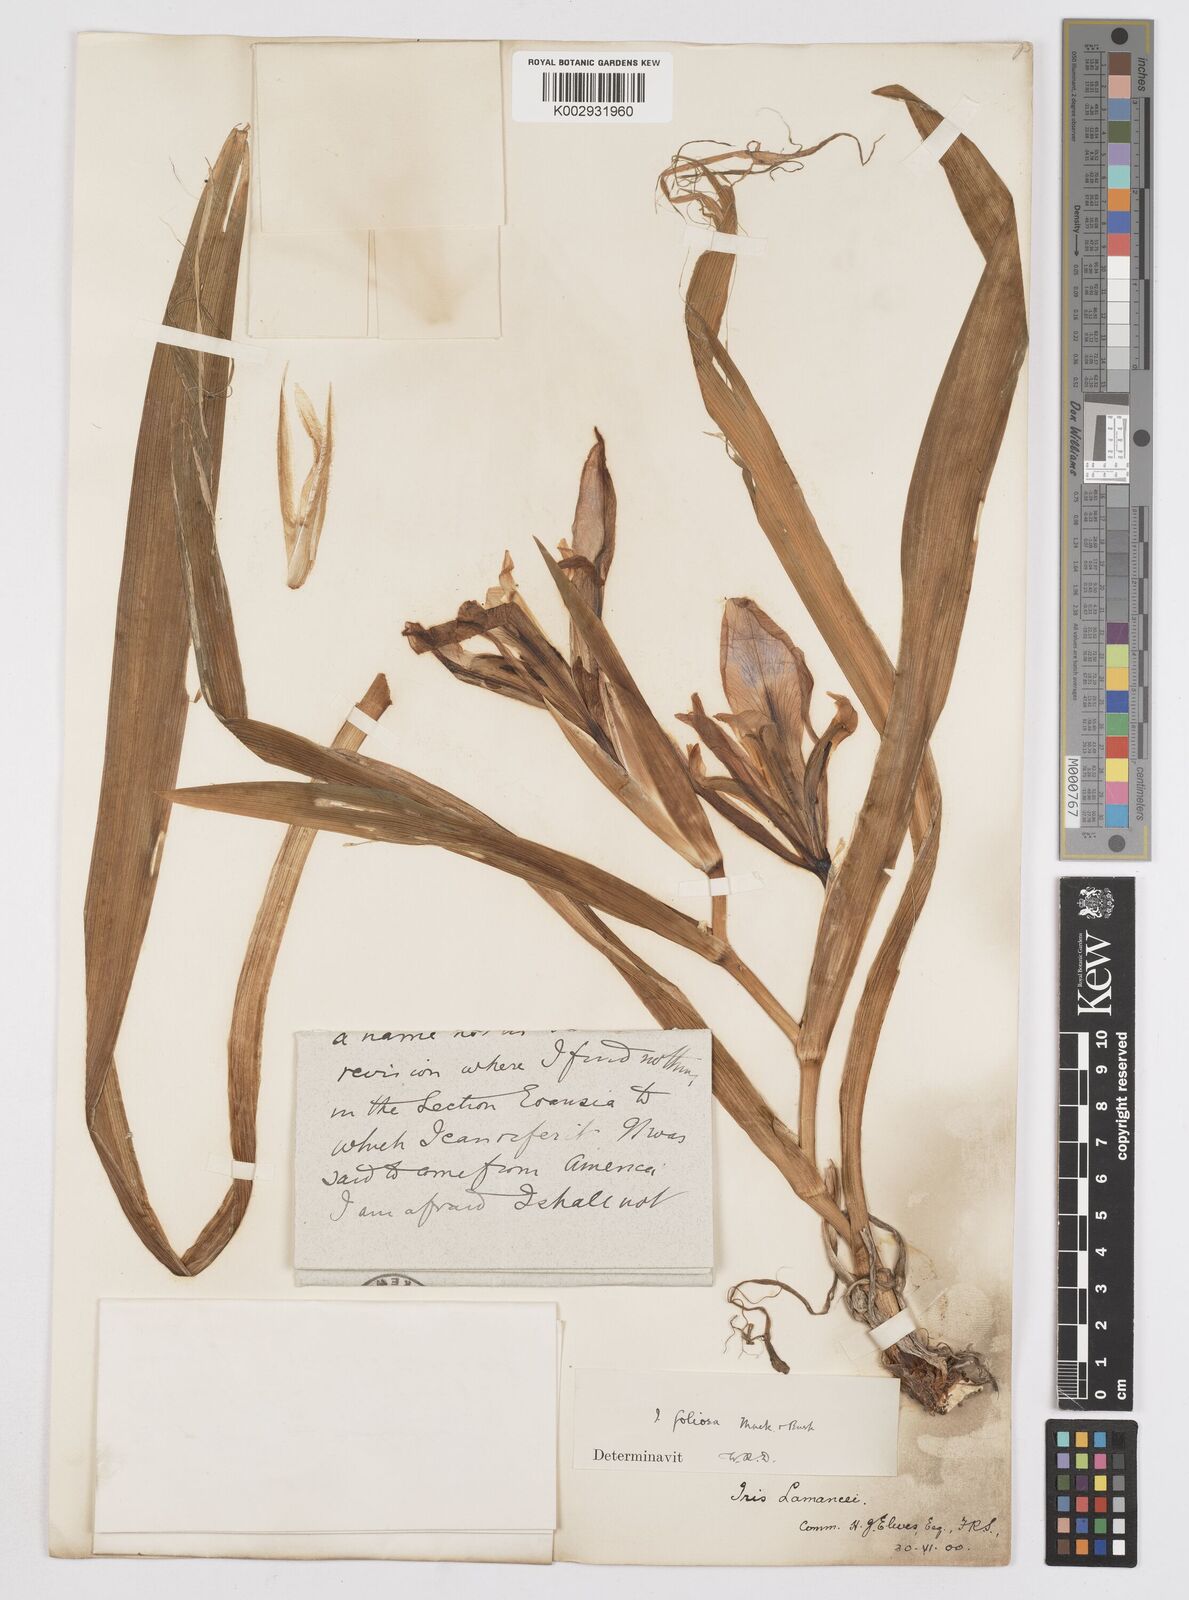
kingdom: Plantae
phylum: Tracheophyta
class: Liliopsida
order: Asparagales
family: Iridaceae
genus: Iris
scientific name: Iris brevicaulis
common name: Zigzag iris
